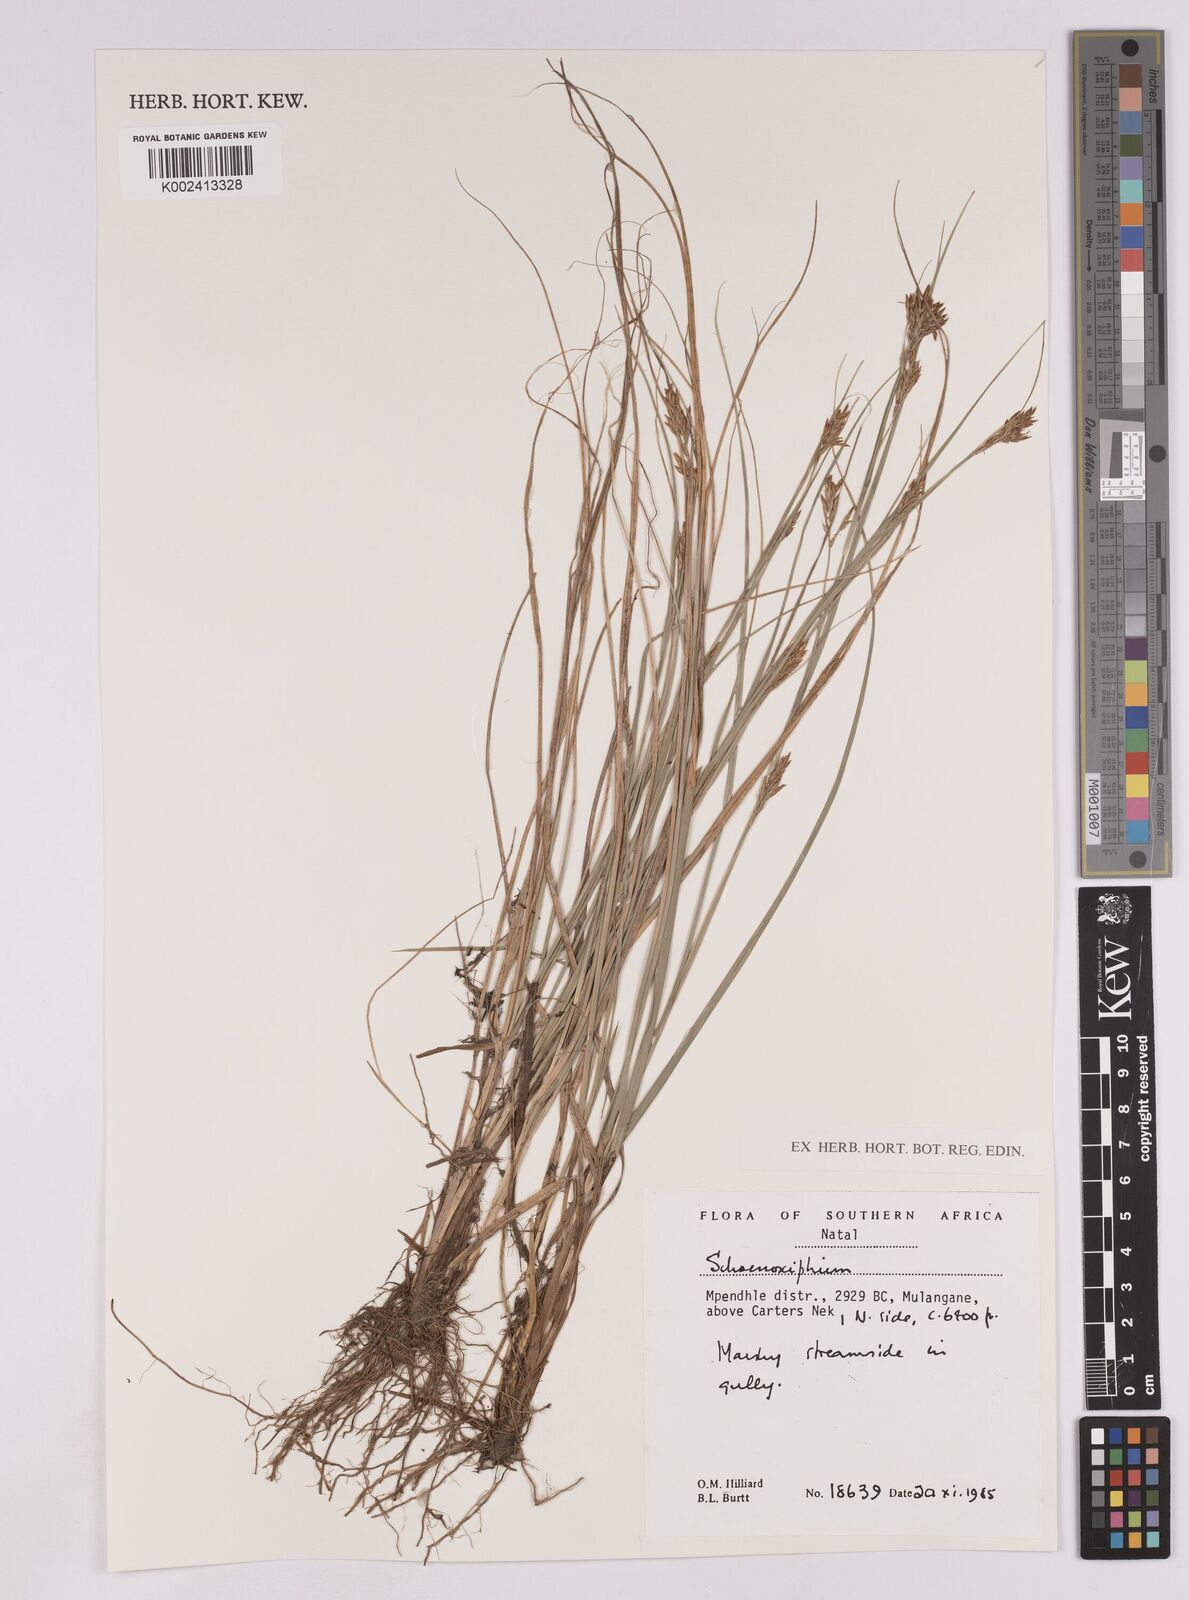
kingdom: Plantae
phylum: Tracheophyta
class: Liliopsida
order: Poales
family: Cyperaceae
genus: Carex
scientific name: Carex
